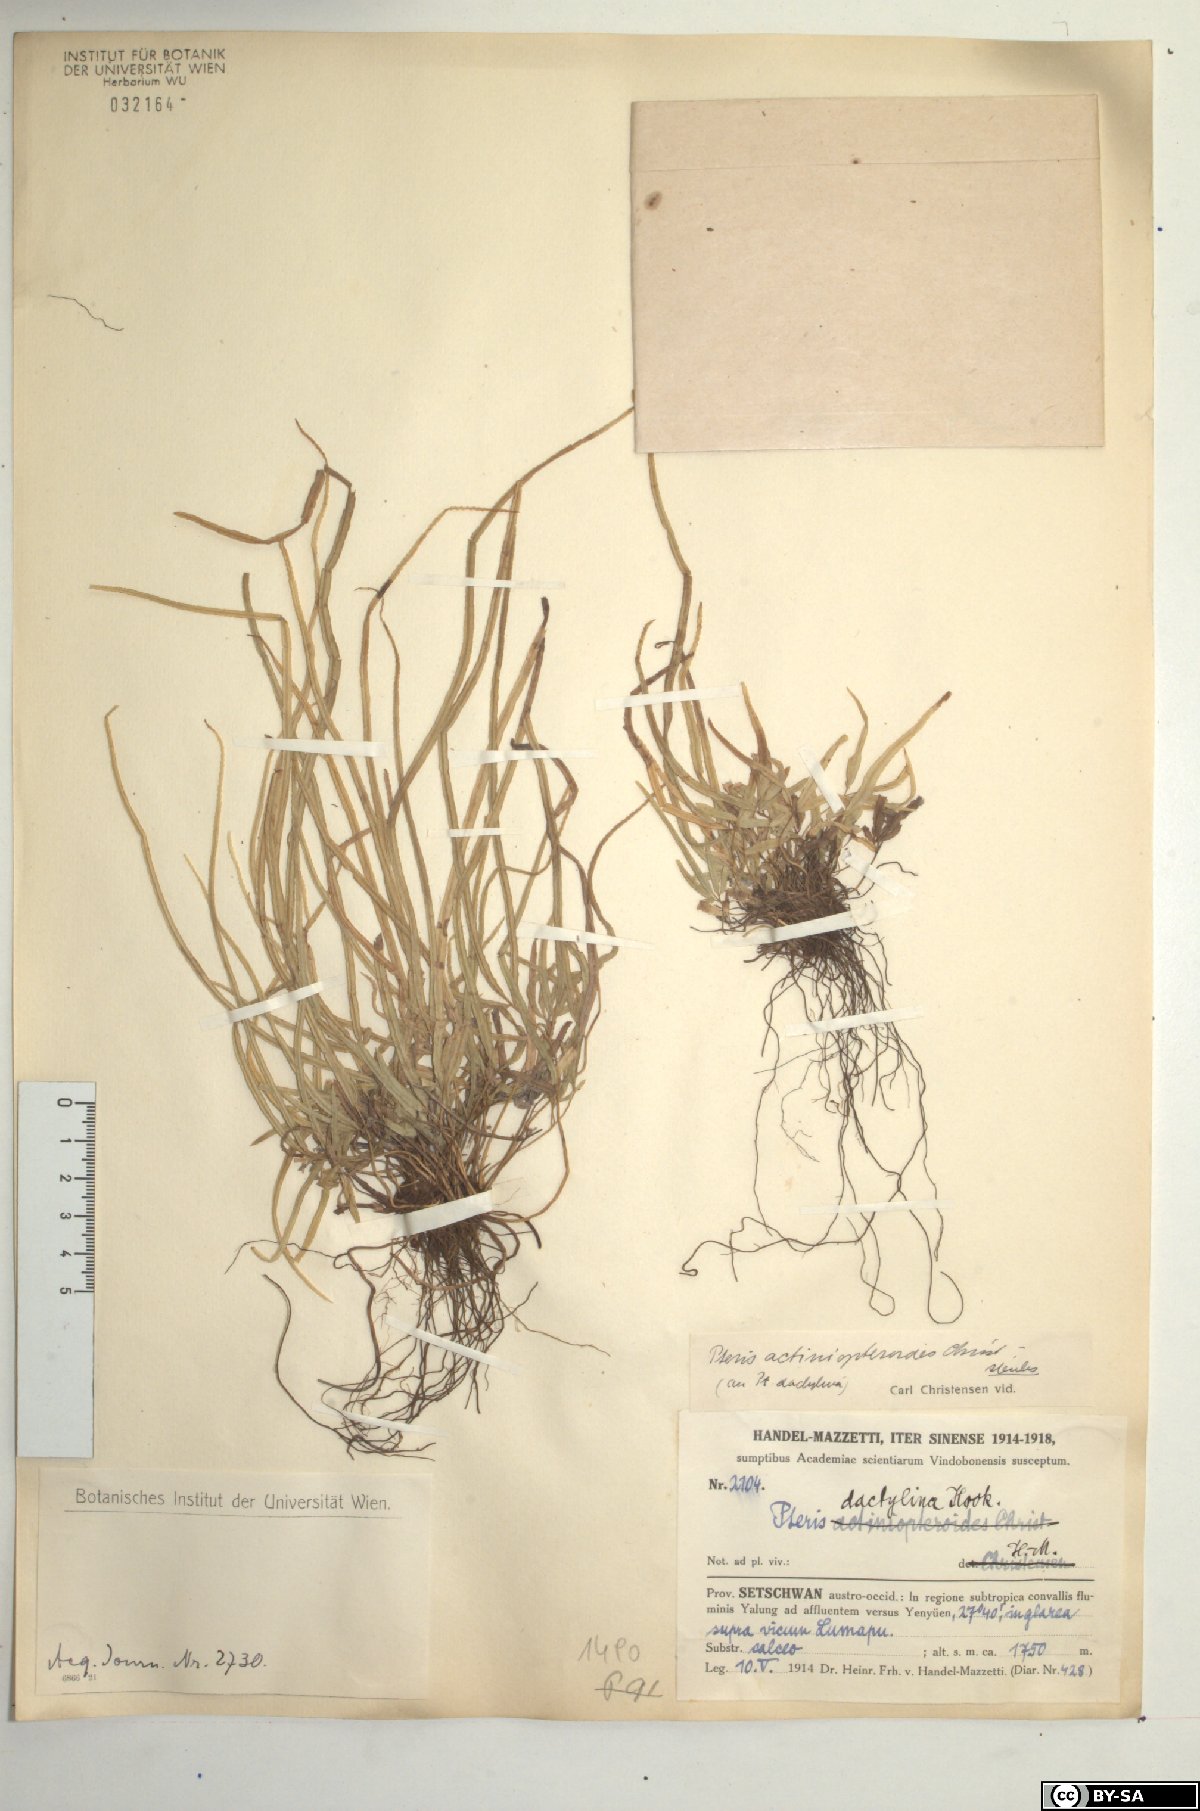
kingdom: Plantae
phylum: Tracheophyta
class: Polypodiopsida
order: Polypodiales
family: Pteridaceae
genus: Pteris
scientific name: Pteris dactylina
